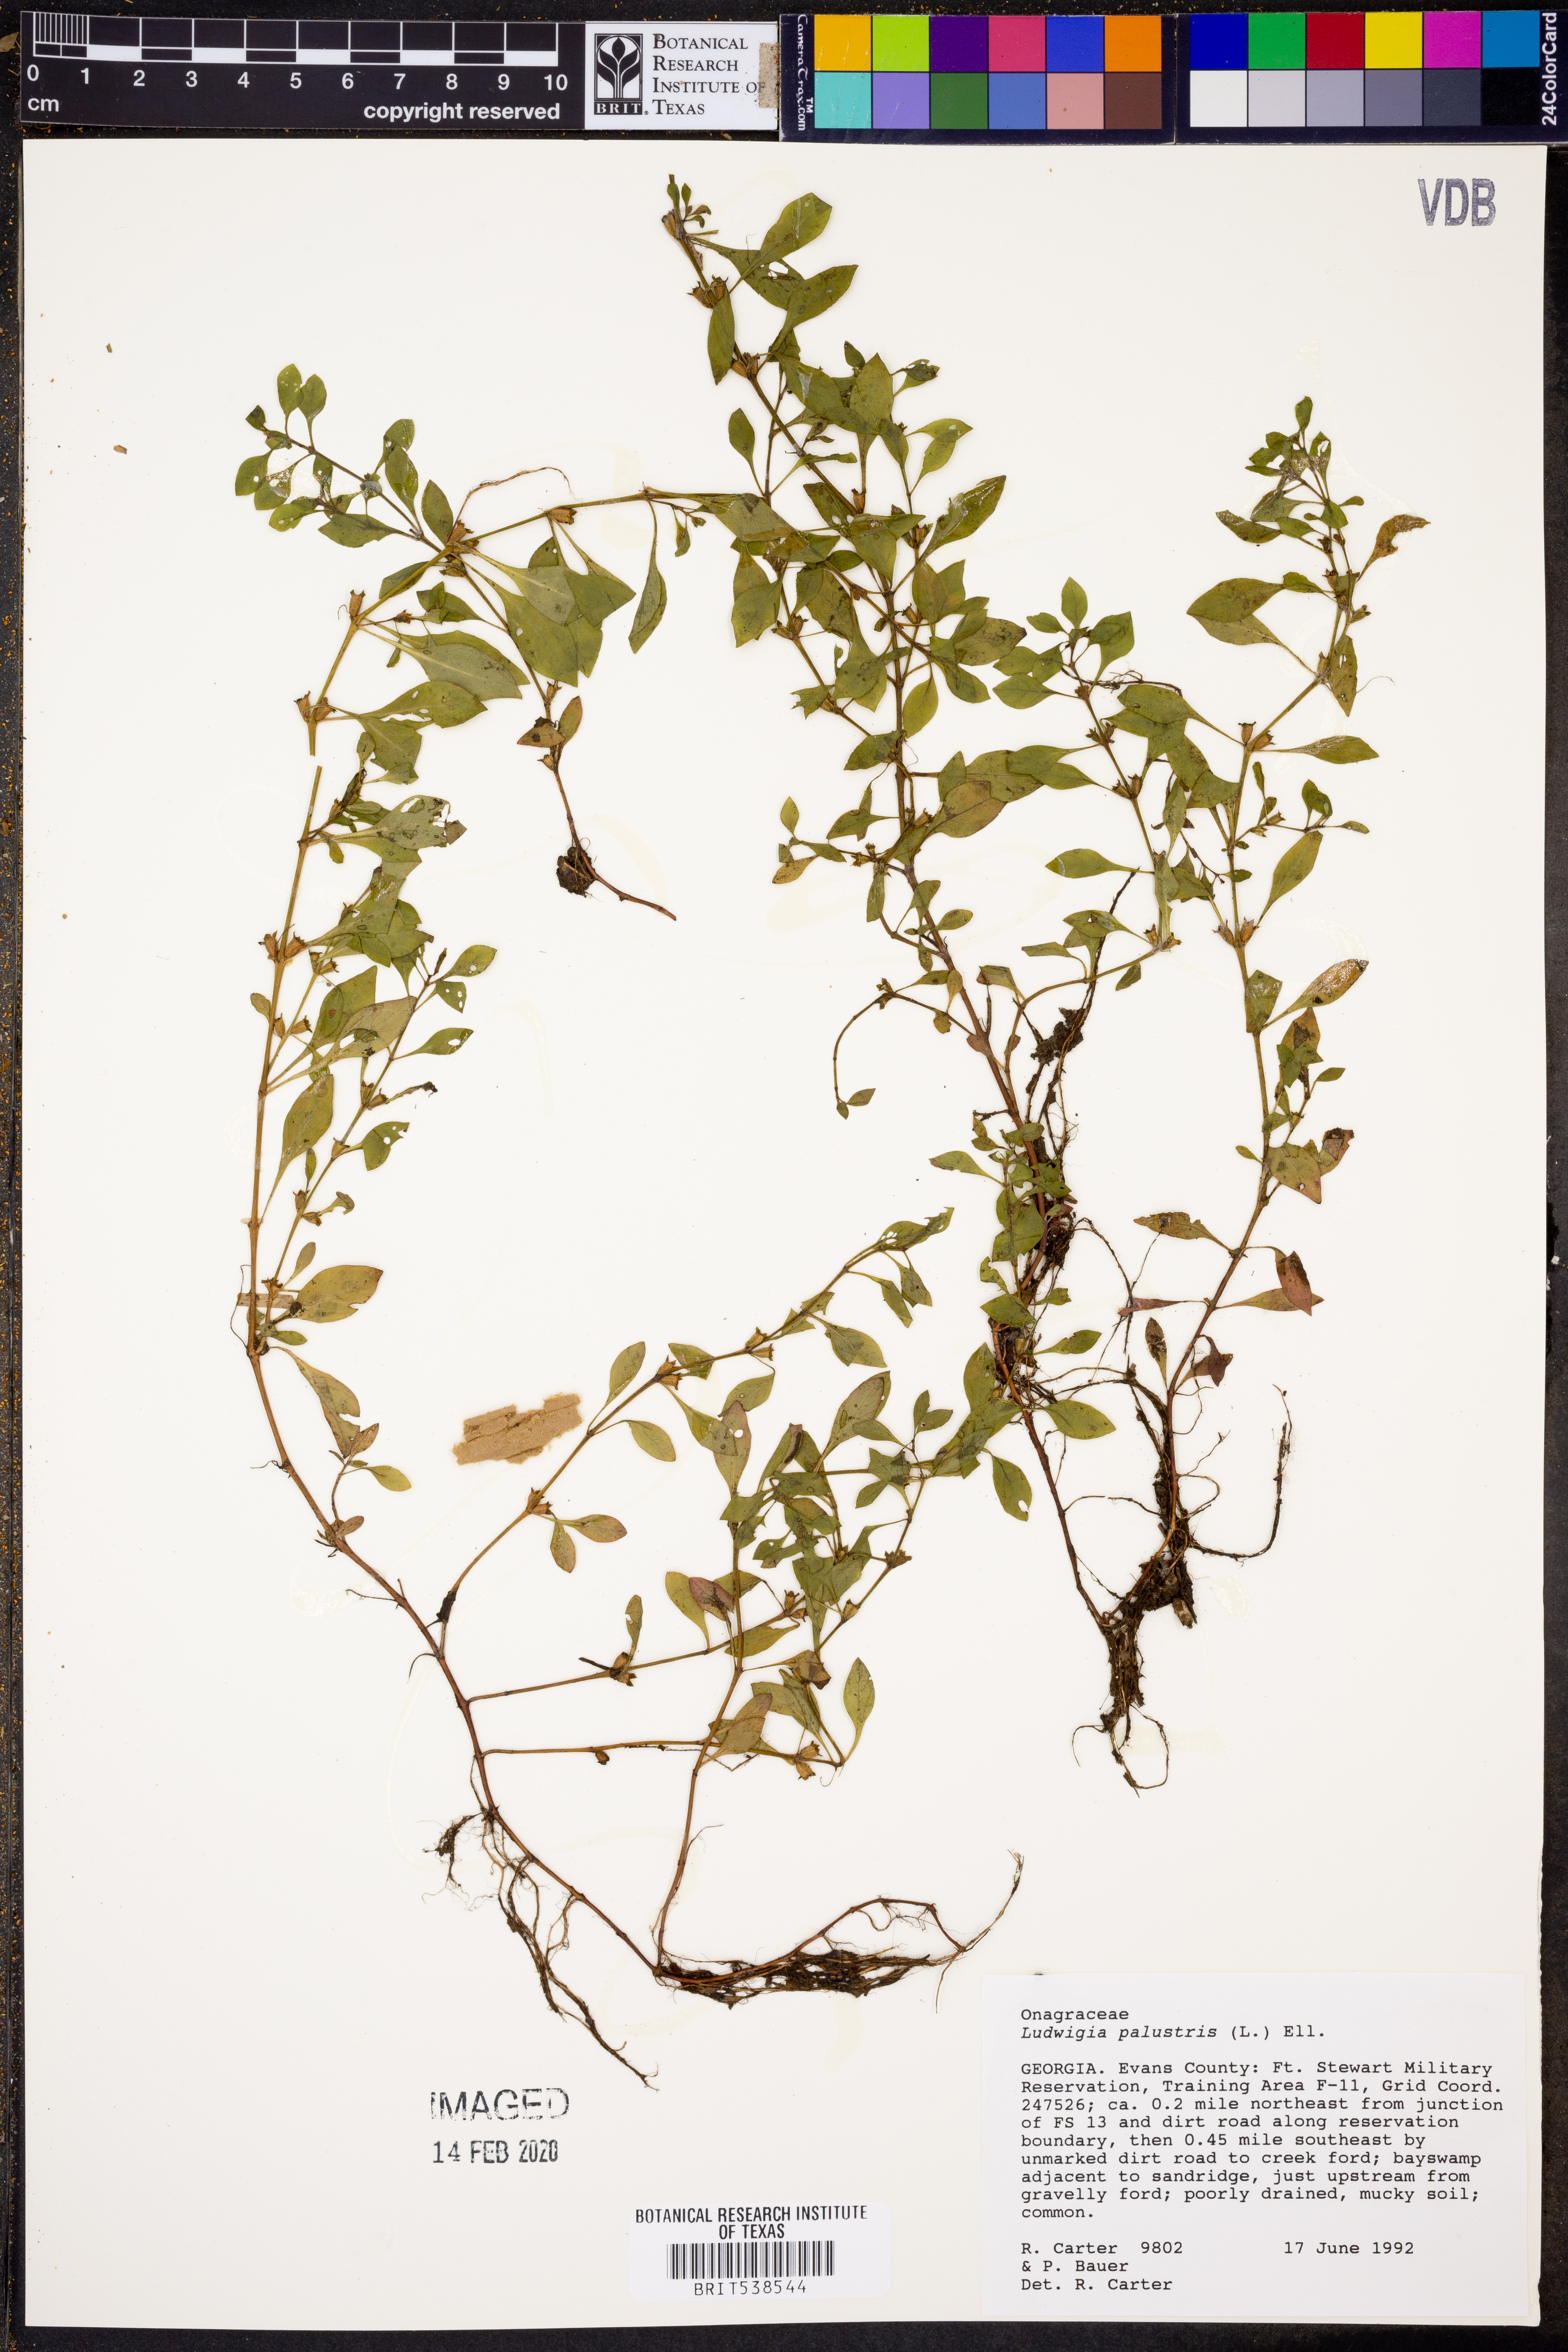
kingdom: Plantae
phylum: Tracheophyta
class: Magnoliopsida
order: Myrtales
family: Onagraceae
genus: Ludwigia
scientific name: Ludwigia palustris
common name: Hampshire-purslane
